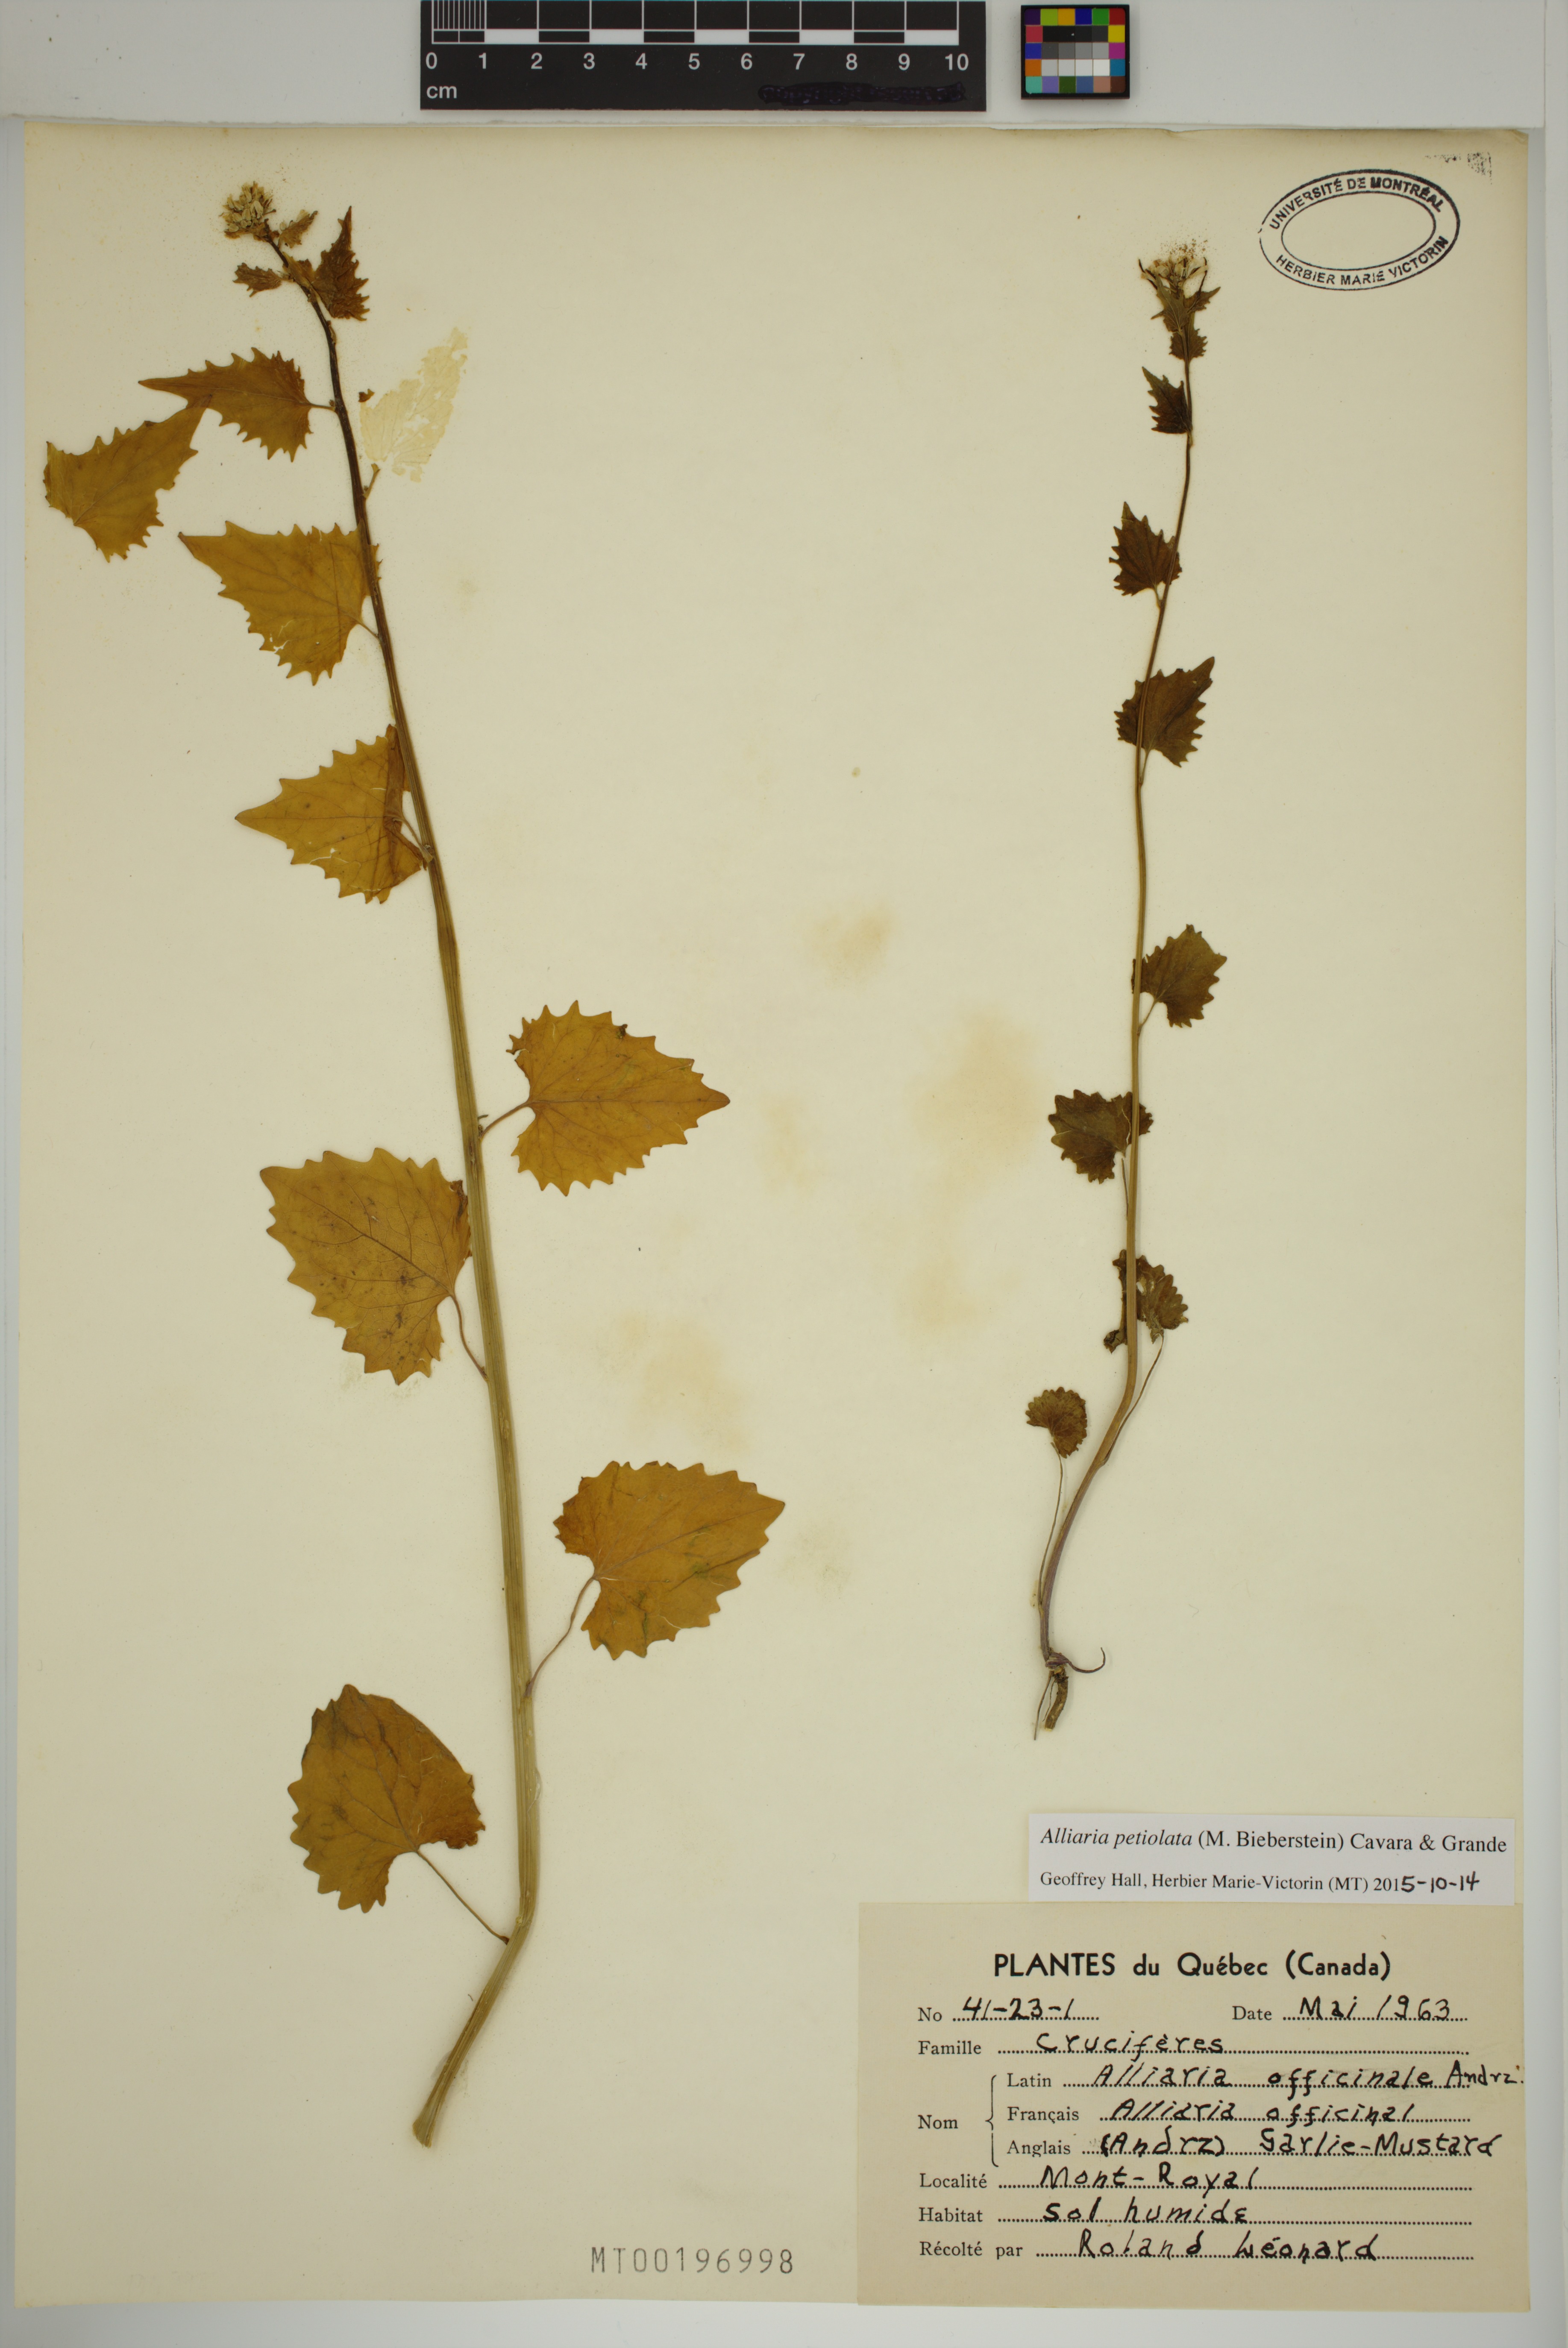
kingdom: Plantae
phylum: Tracheophyta
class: Magnoliopsida
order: Brassicales
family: Brassicaceae
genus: Alliaria
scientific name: Alliaria petiolata
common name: Garlic mustard
